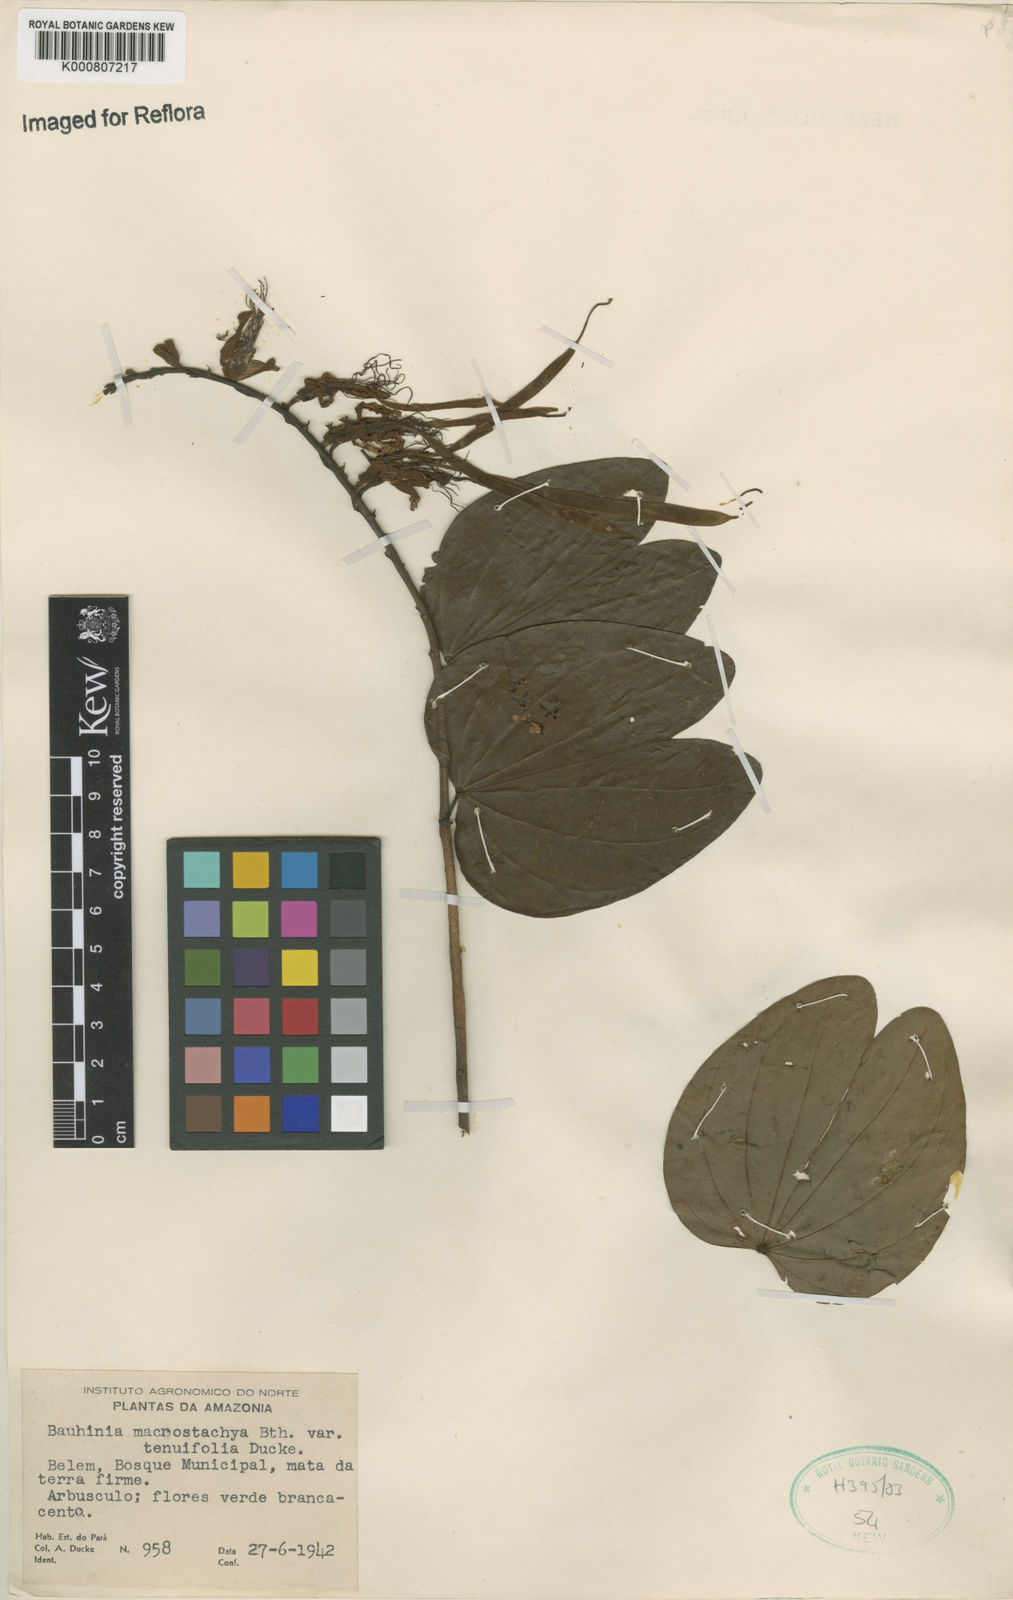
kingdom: Plantae
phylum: Tracheophyta
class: Magnoliopsida
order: Fabales
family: Fabaceae
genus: Bauhinia
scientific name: Bauhinia ungulata
